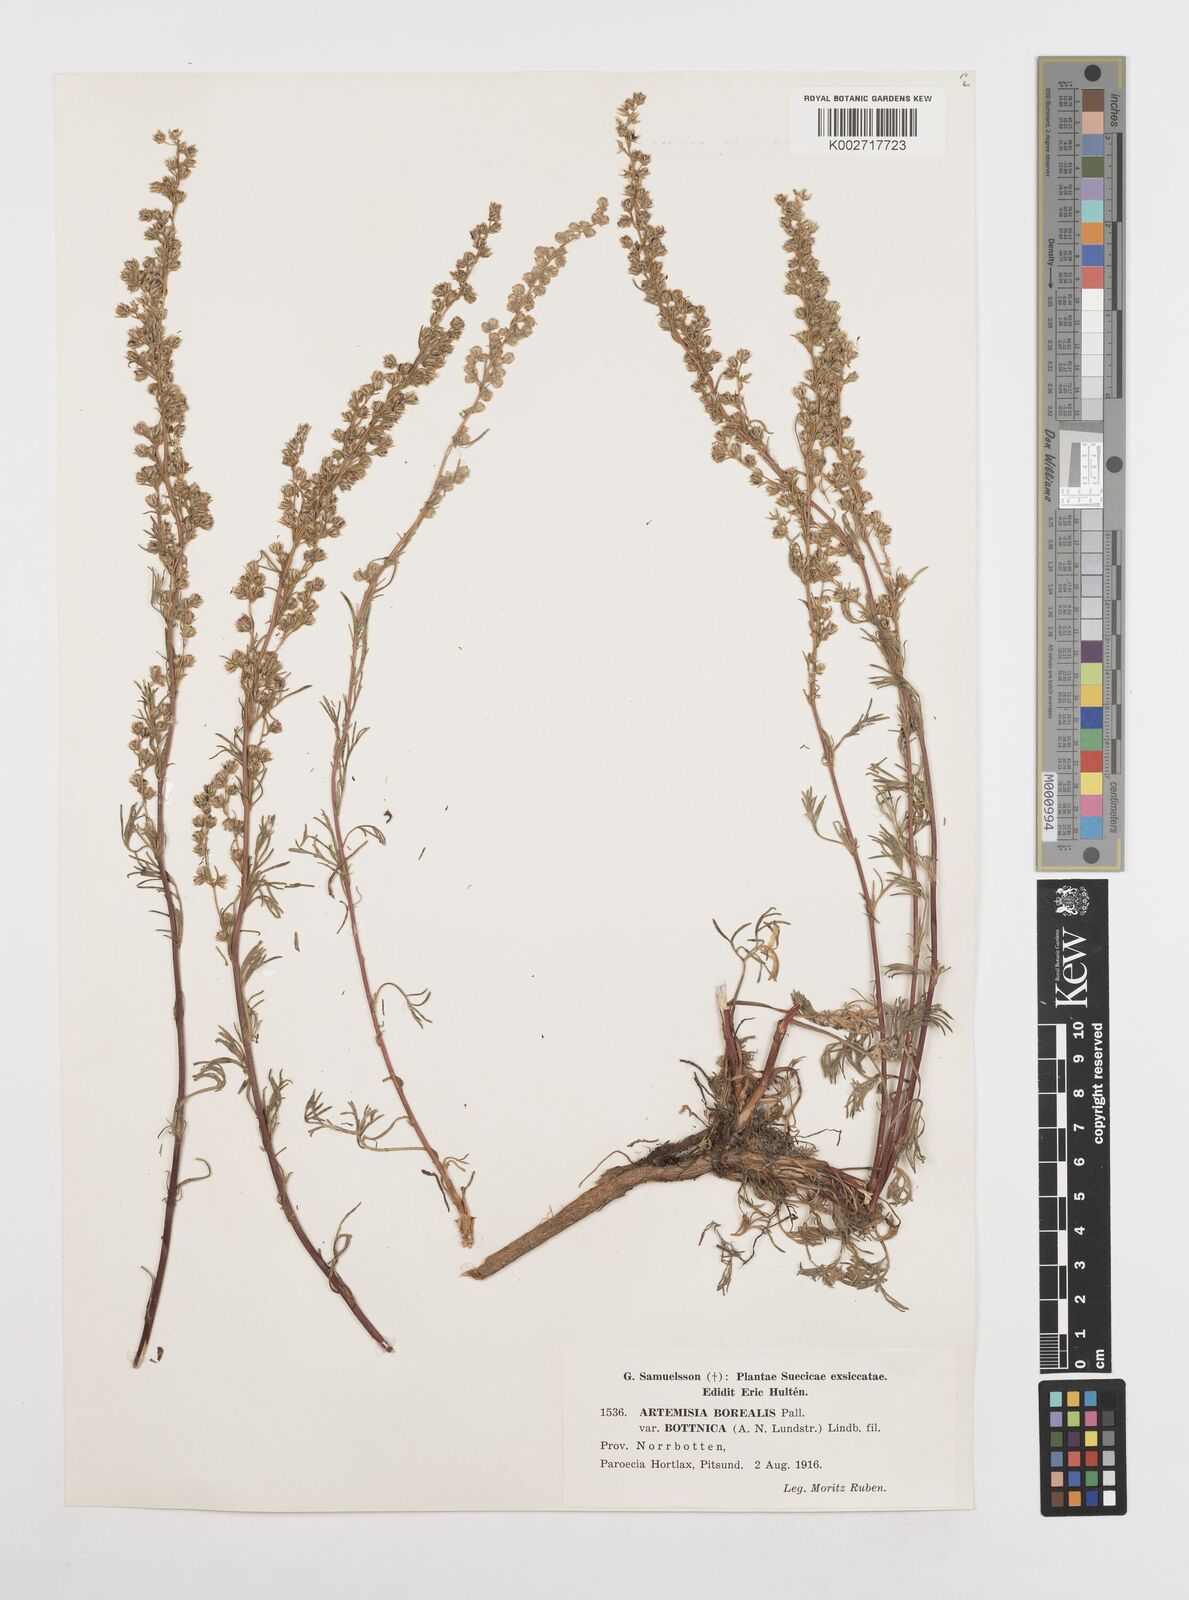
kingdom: Plantae
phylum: Tracheophyta
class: Magnoliopsida
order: Asterales
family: Asteraceae
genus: Artemisia
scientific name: Artemisia campestris
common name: Field wormwood
